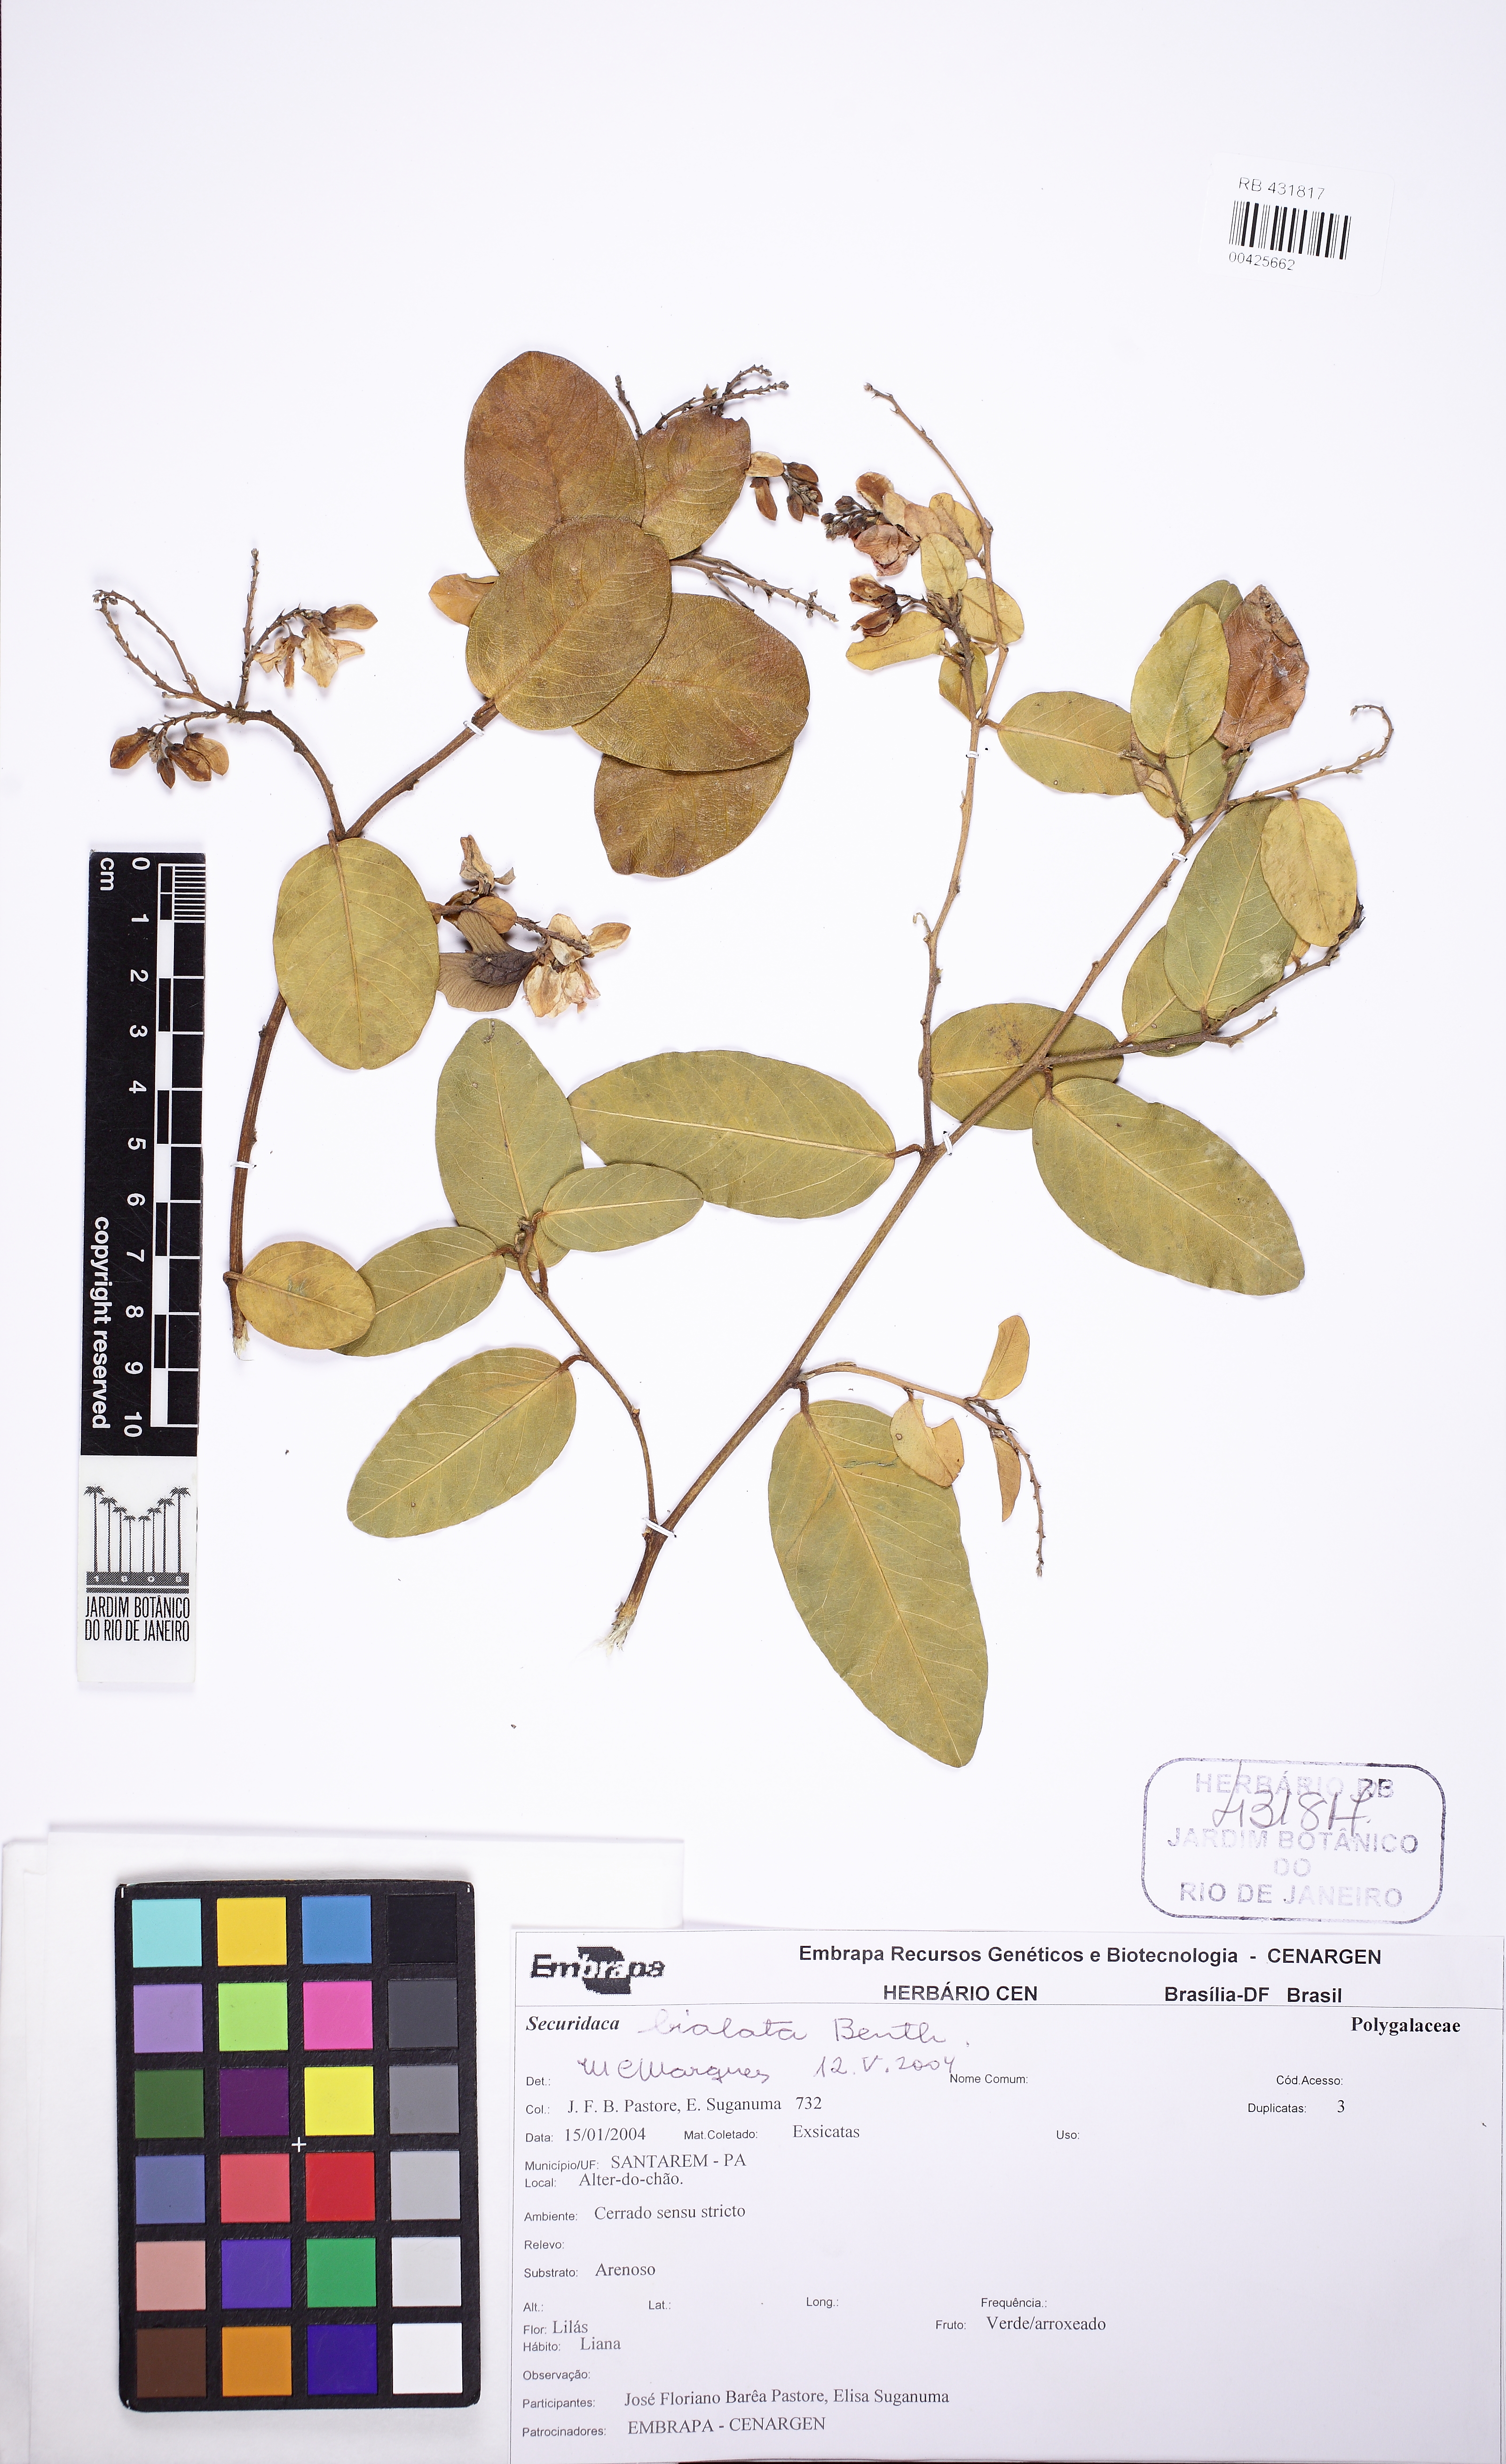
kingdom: Plantae
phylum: Tracheophyta
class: Magnoliopsida
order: Fabales
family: Polygalaceae
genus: Securidaca
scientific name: Securidaca bialata
